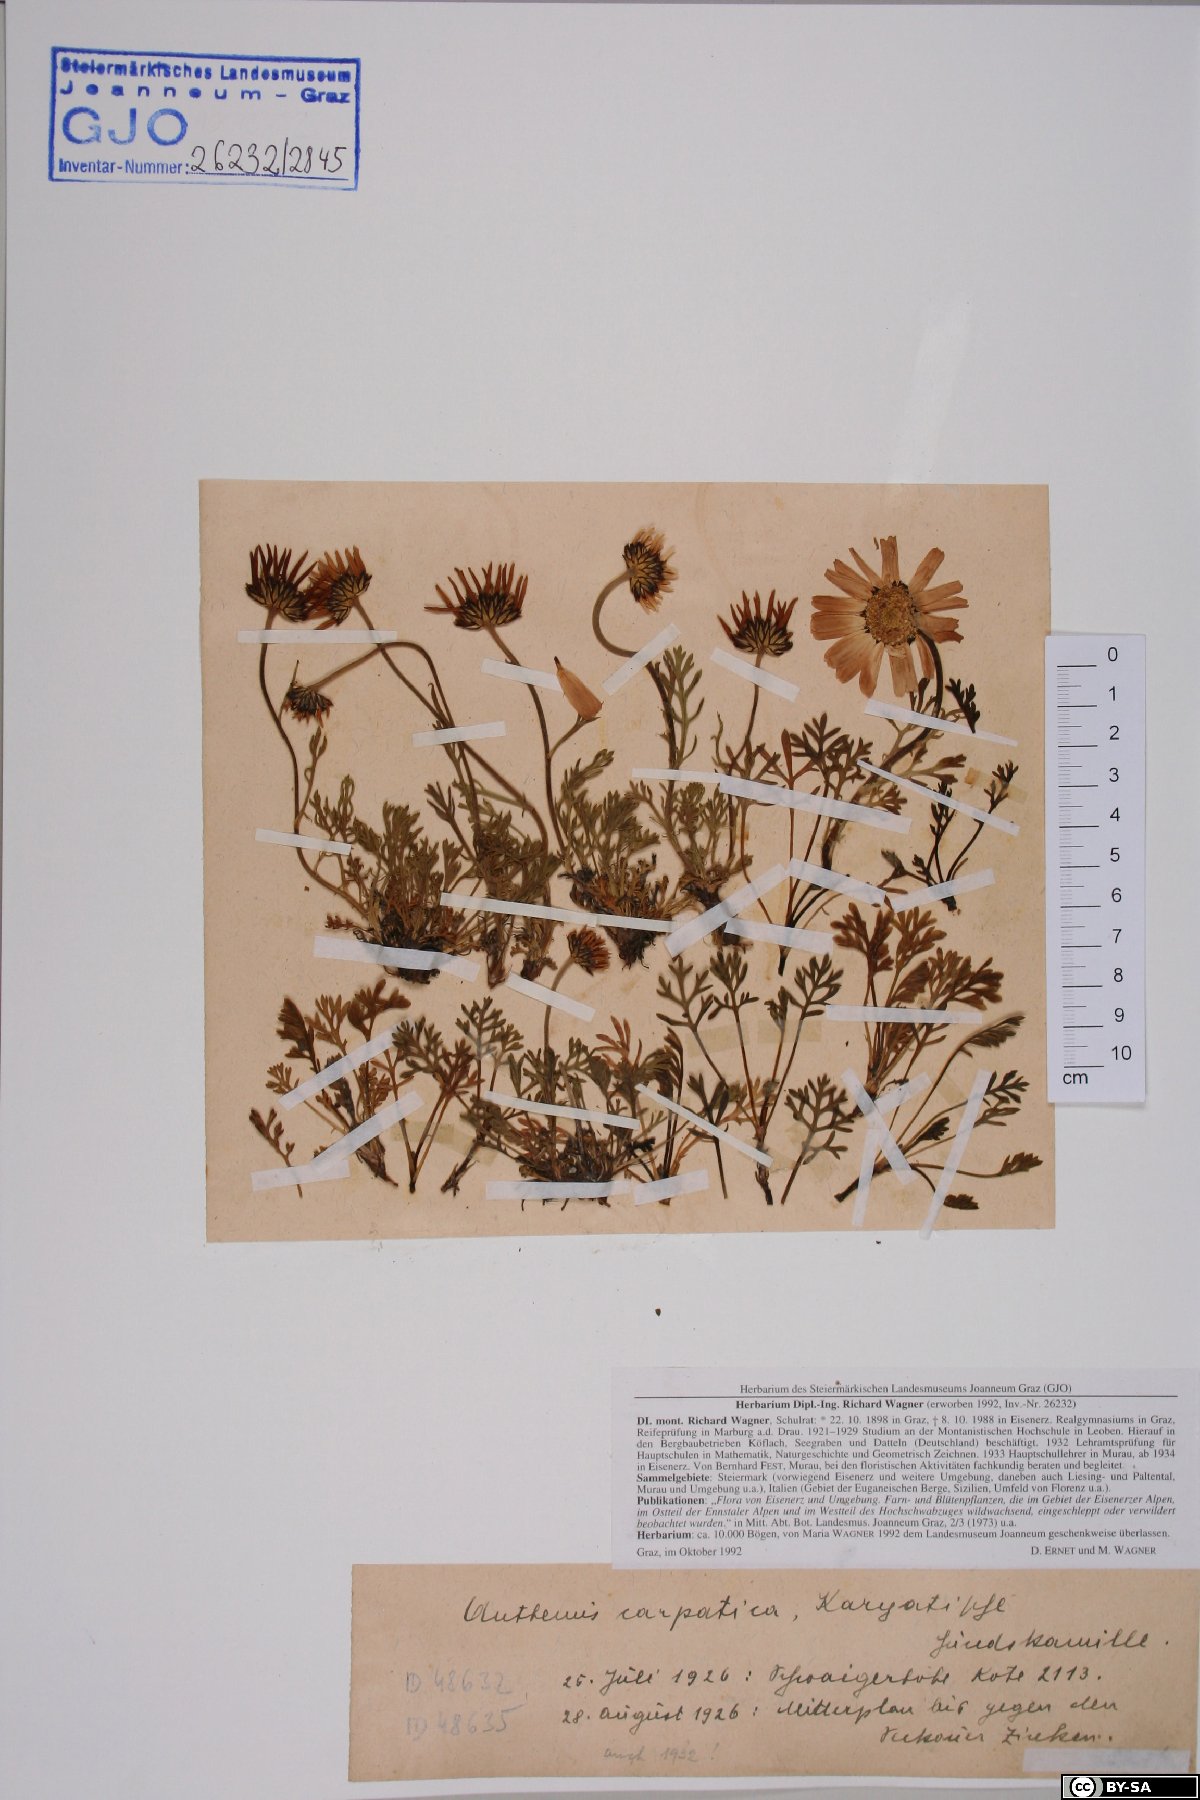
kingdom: Plantae
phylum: Tracheophyta
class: Magnoliopsida
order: Asterales
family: Asteraceae
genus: Anthemis
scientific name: Anthemis cretica
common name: Mountain dog-daisy
